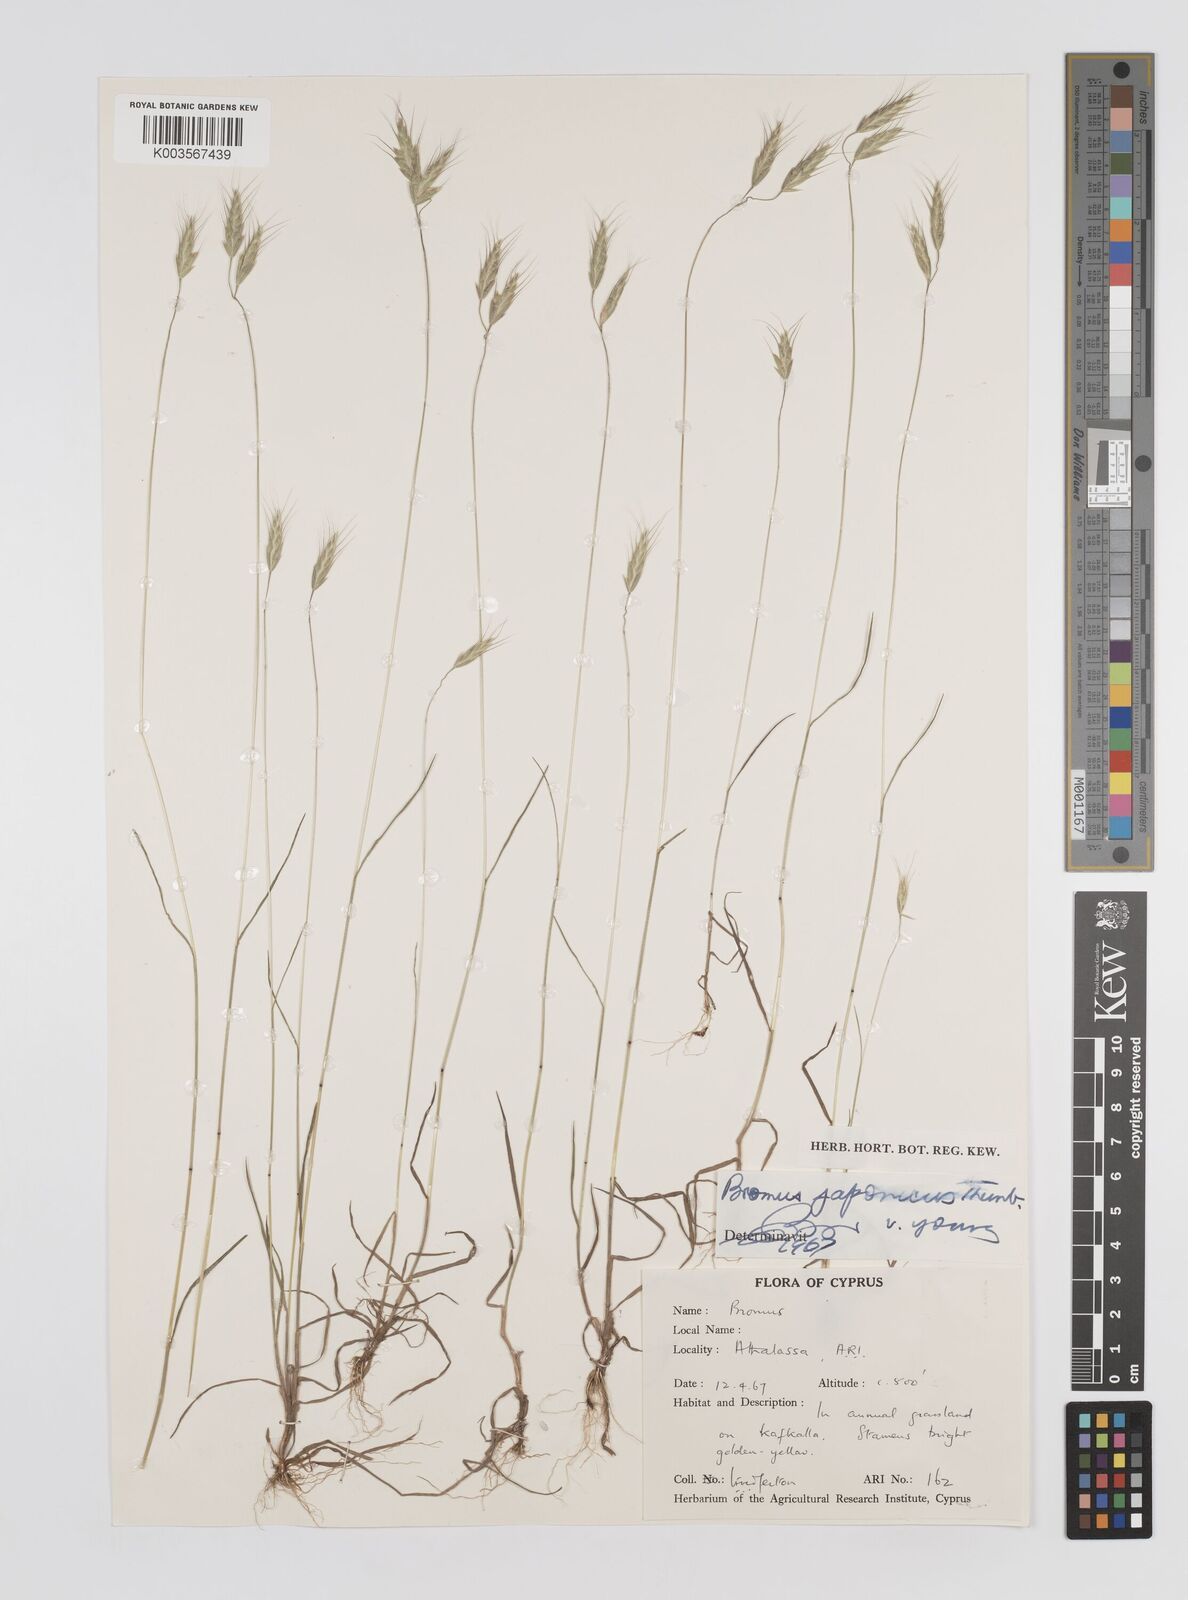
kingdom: Plantae
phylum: Tracheophyta
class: Liliopsida
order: Poales
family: Poaceae
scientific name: Poaceae
